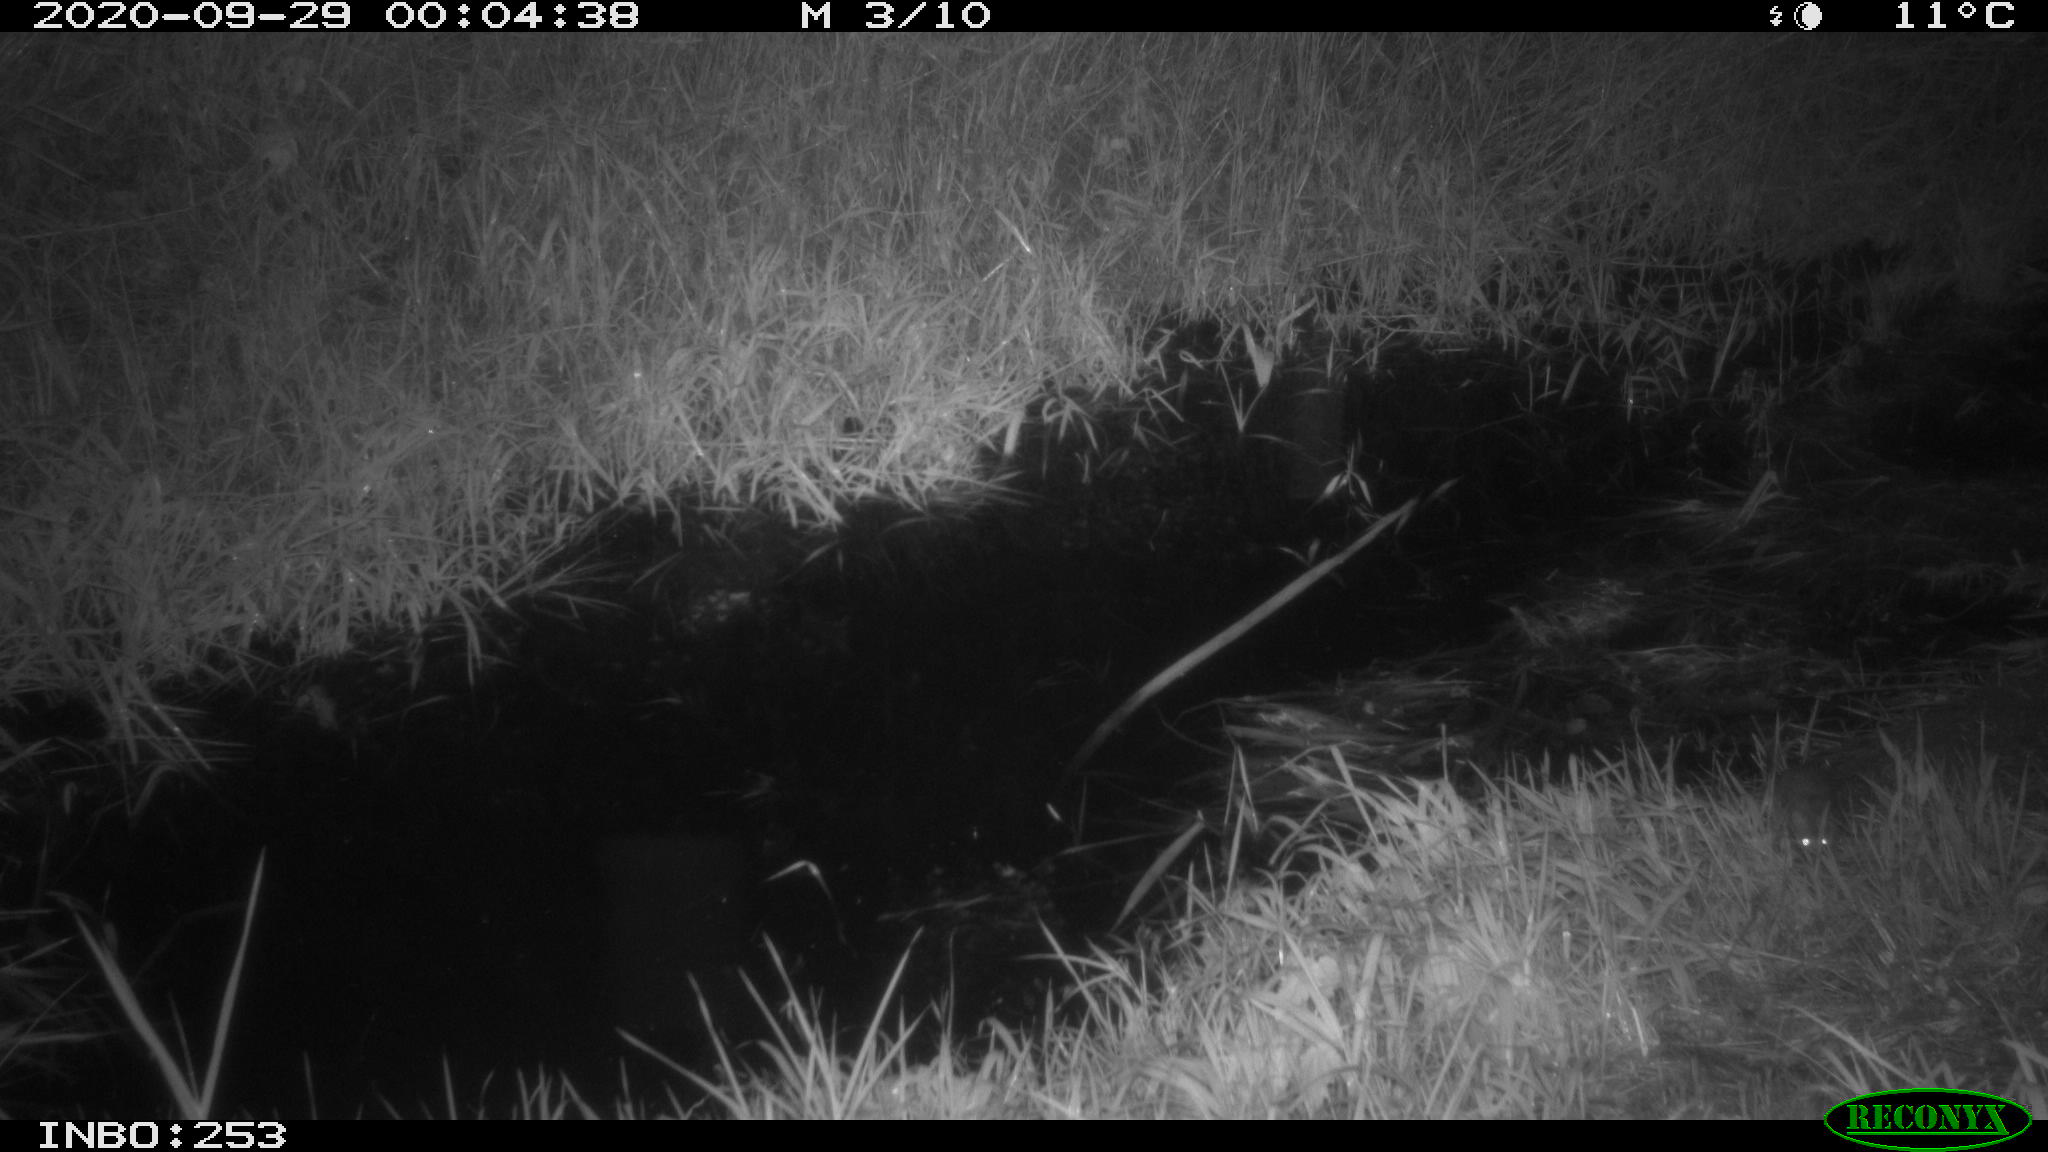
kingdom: Animalia
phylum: Chordata
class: Mammalia
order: Rodentia
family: Muridae
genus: Rattus
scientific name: Rattus norvegicus
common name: Brown rat
